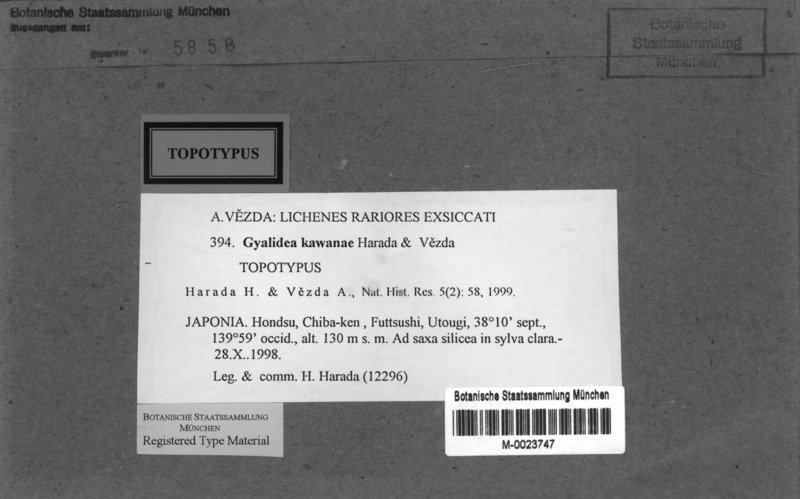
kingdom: Fungi
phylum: Ascomycota
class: Lecanoromycetes
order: Ostropales
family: Gomphillaceae
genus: Gyalidea
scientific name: Gyalidea kawanae
